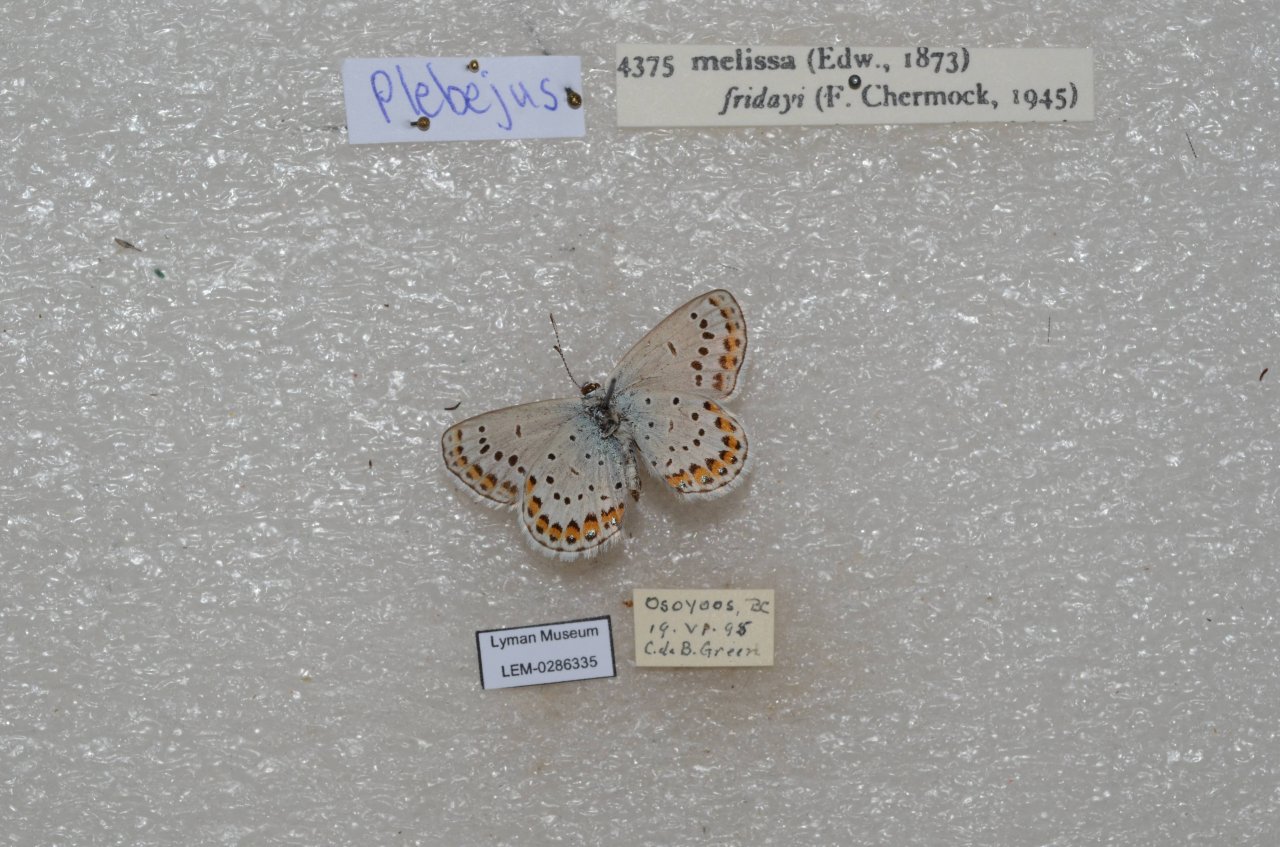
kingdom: Animalia
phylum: Arthropoda
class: Insecta
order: Lepidoptera
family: Lycaenidae
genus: Lycaeides
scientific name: Lycaeides melissa
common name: Melissa Blue
